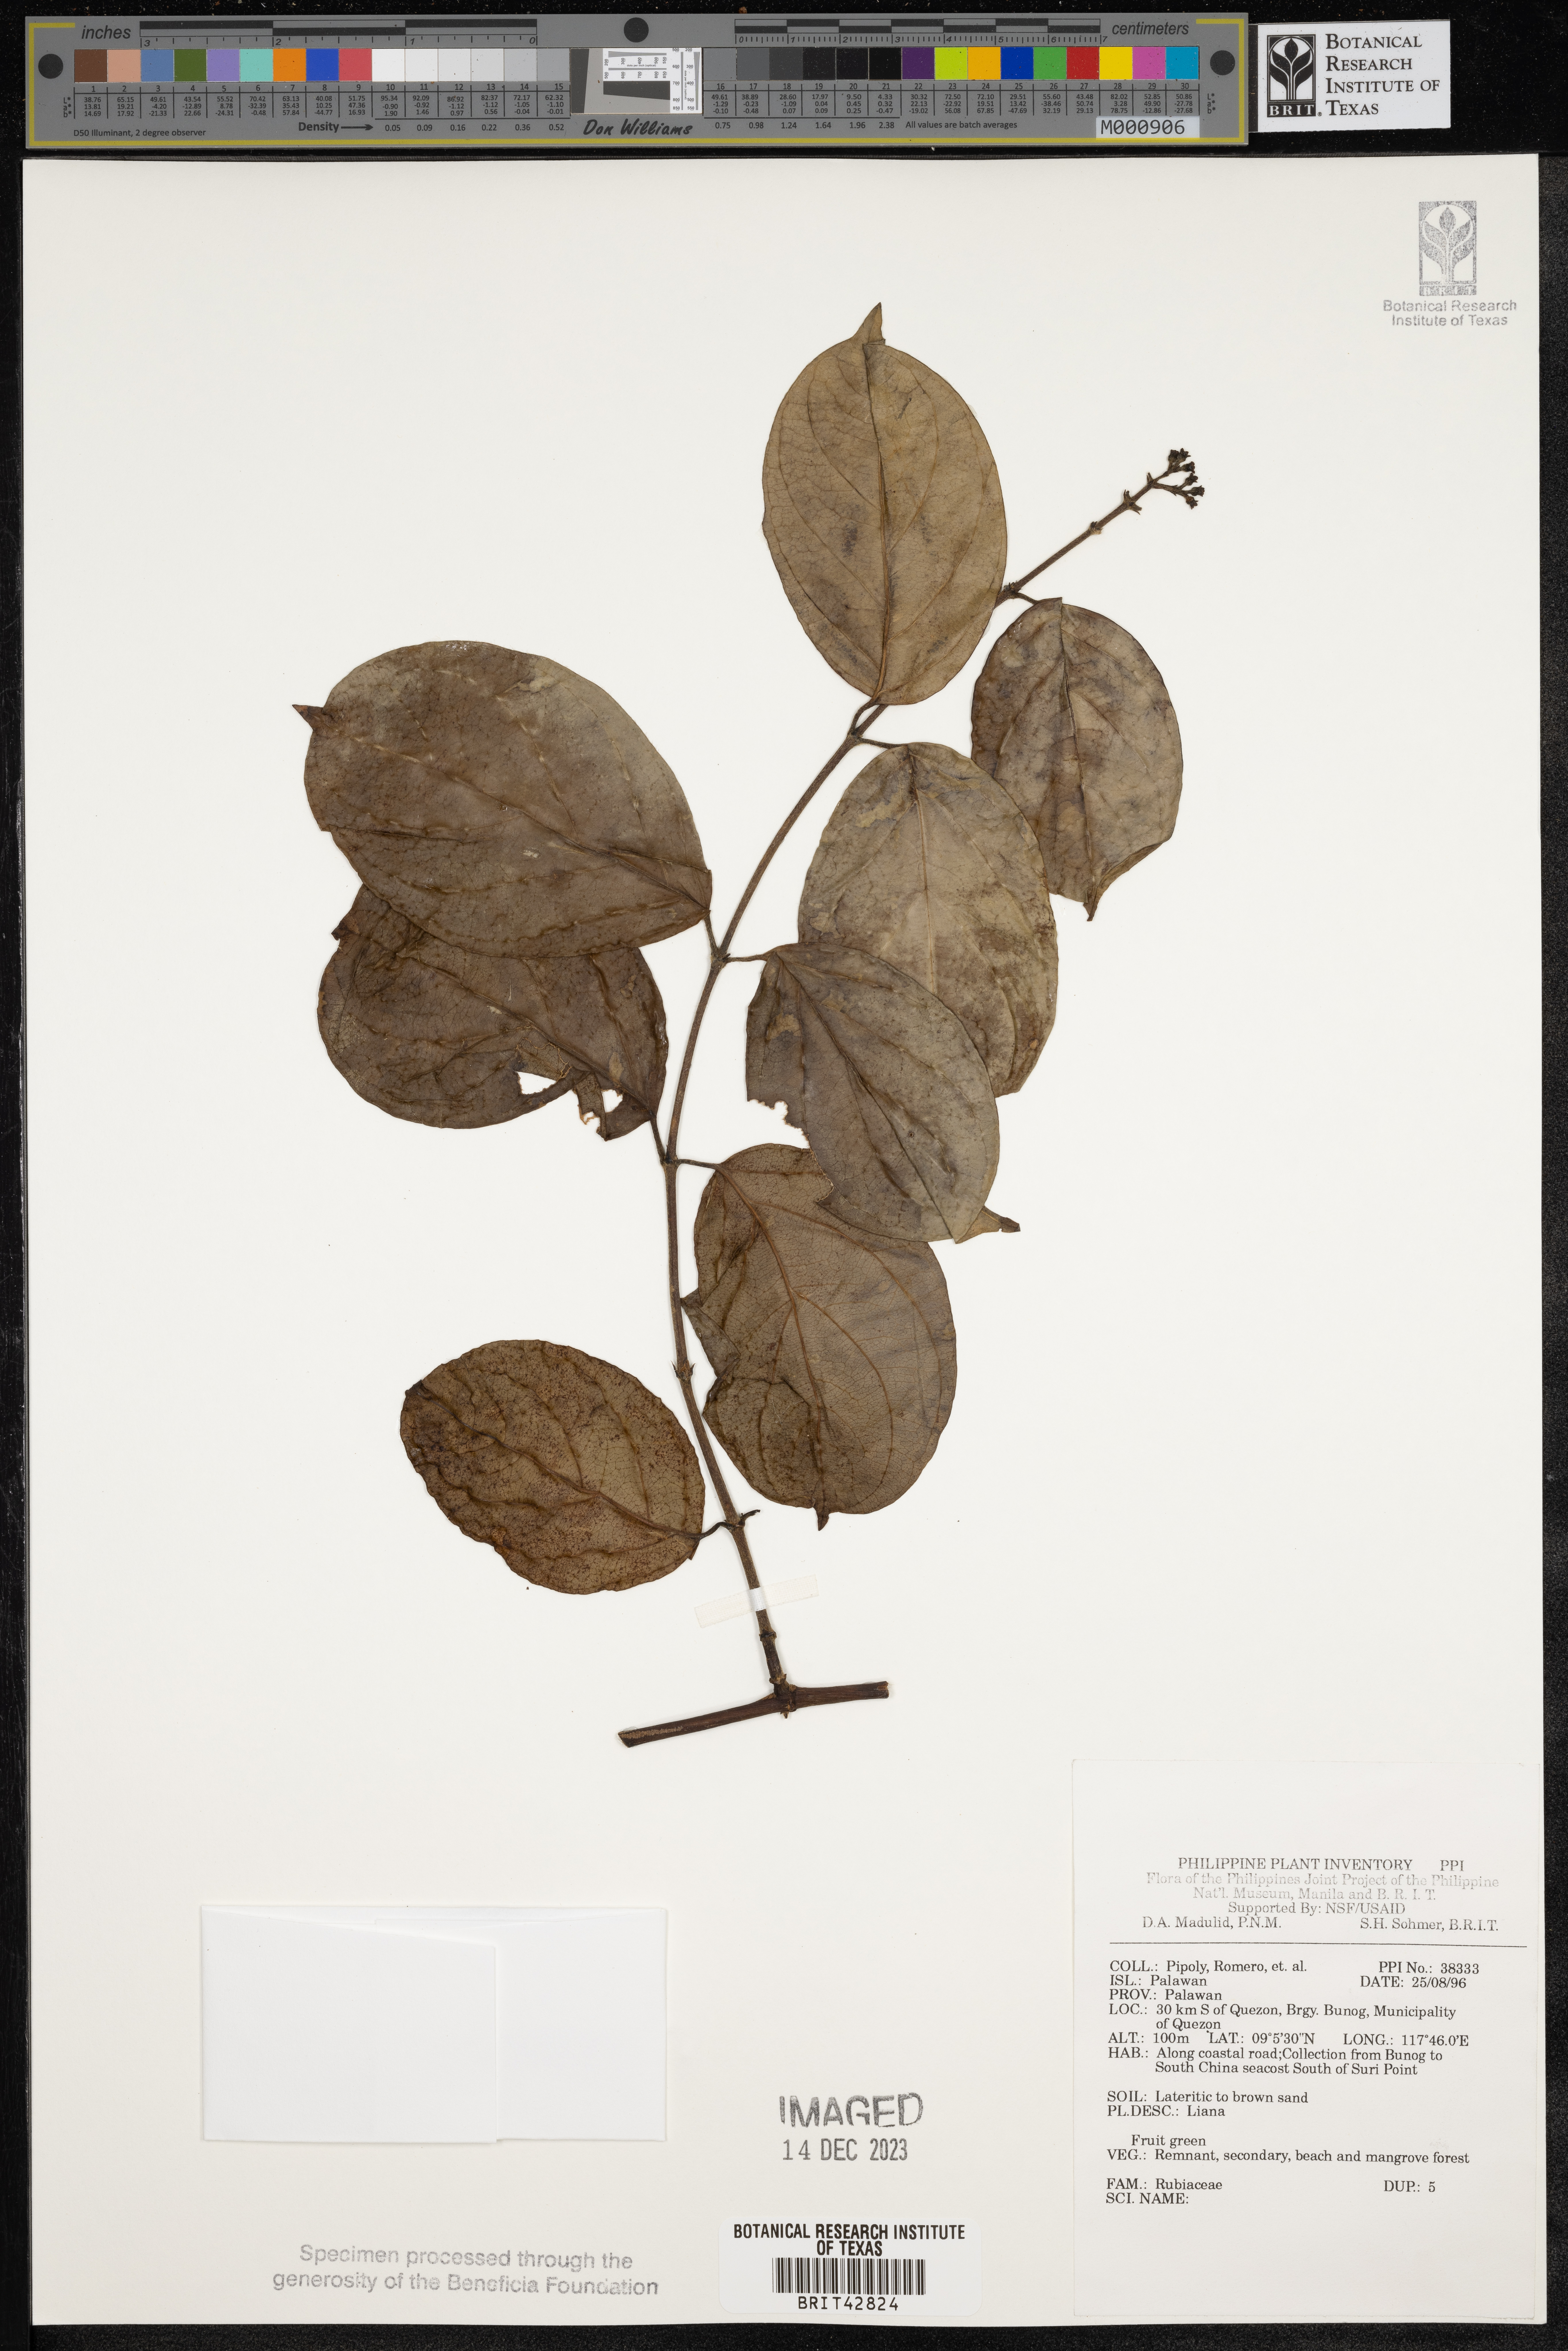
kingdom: Plantae
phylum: Tracheophyta
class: Magnoliopsida
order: Gentianales
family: Rubiaceae
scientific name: Rubiaceae
